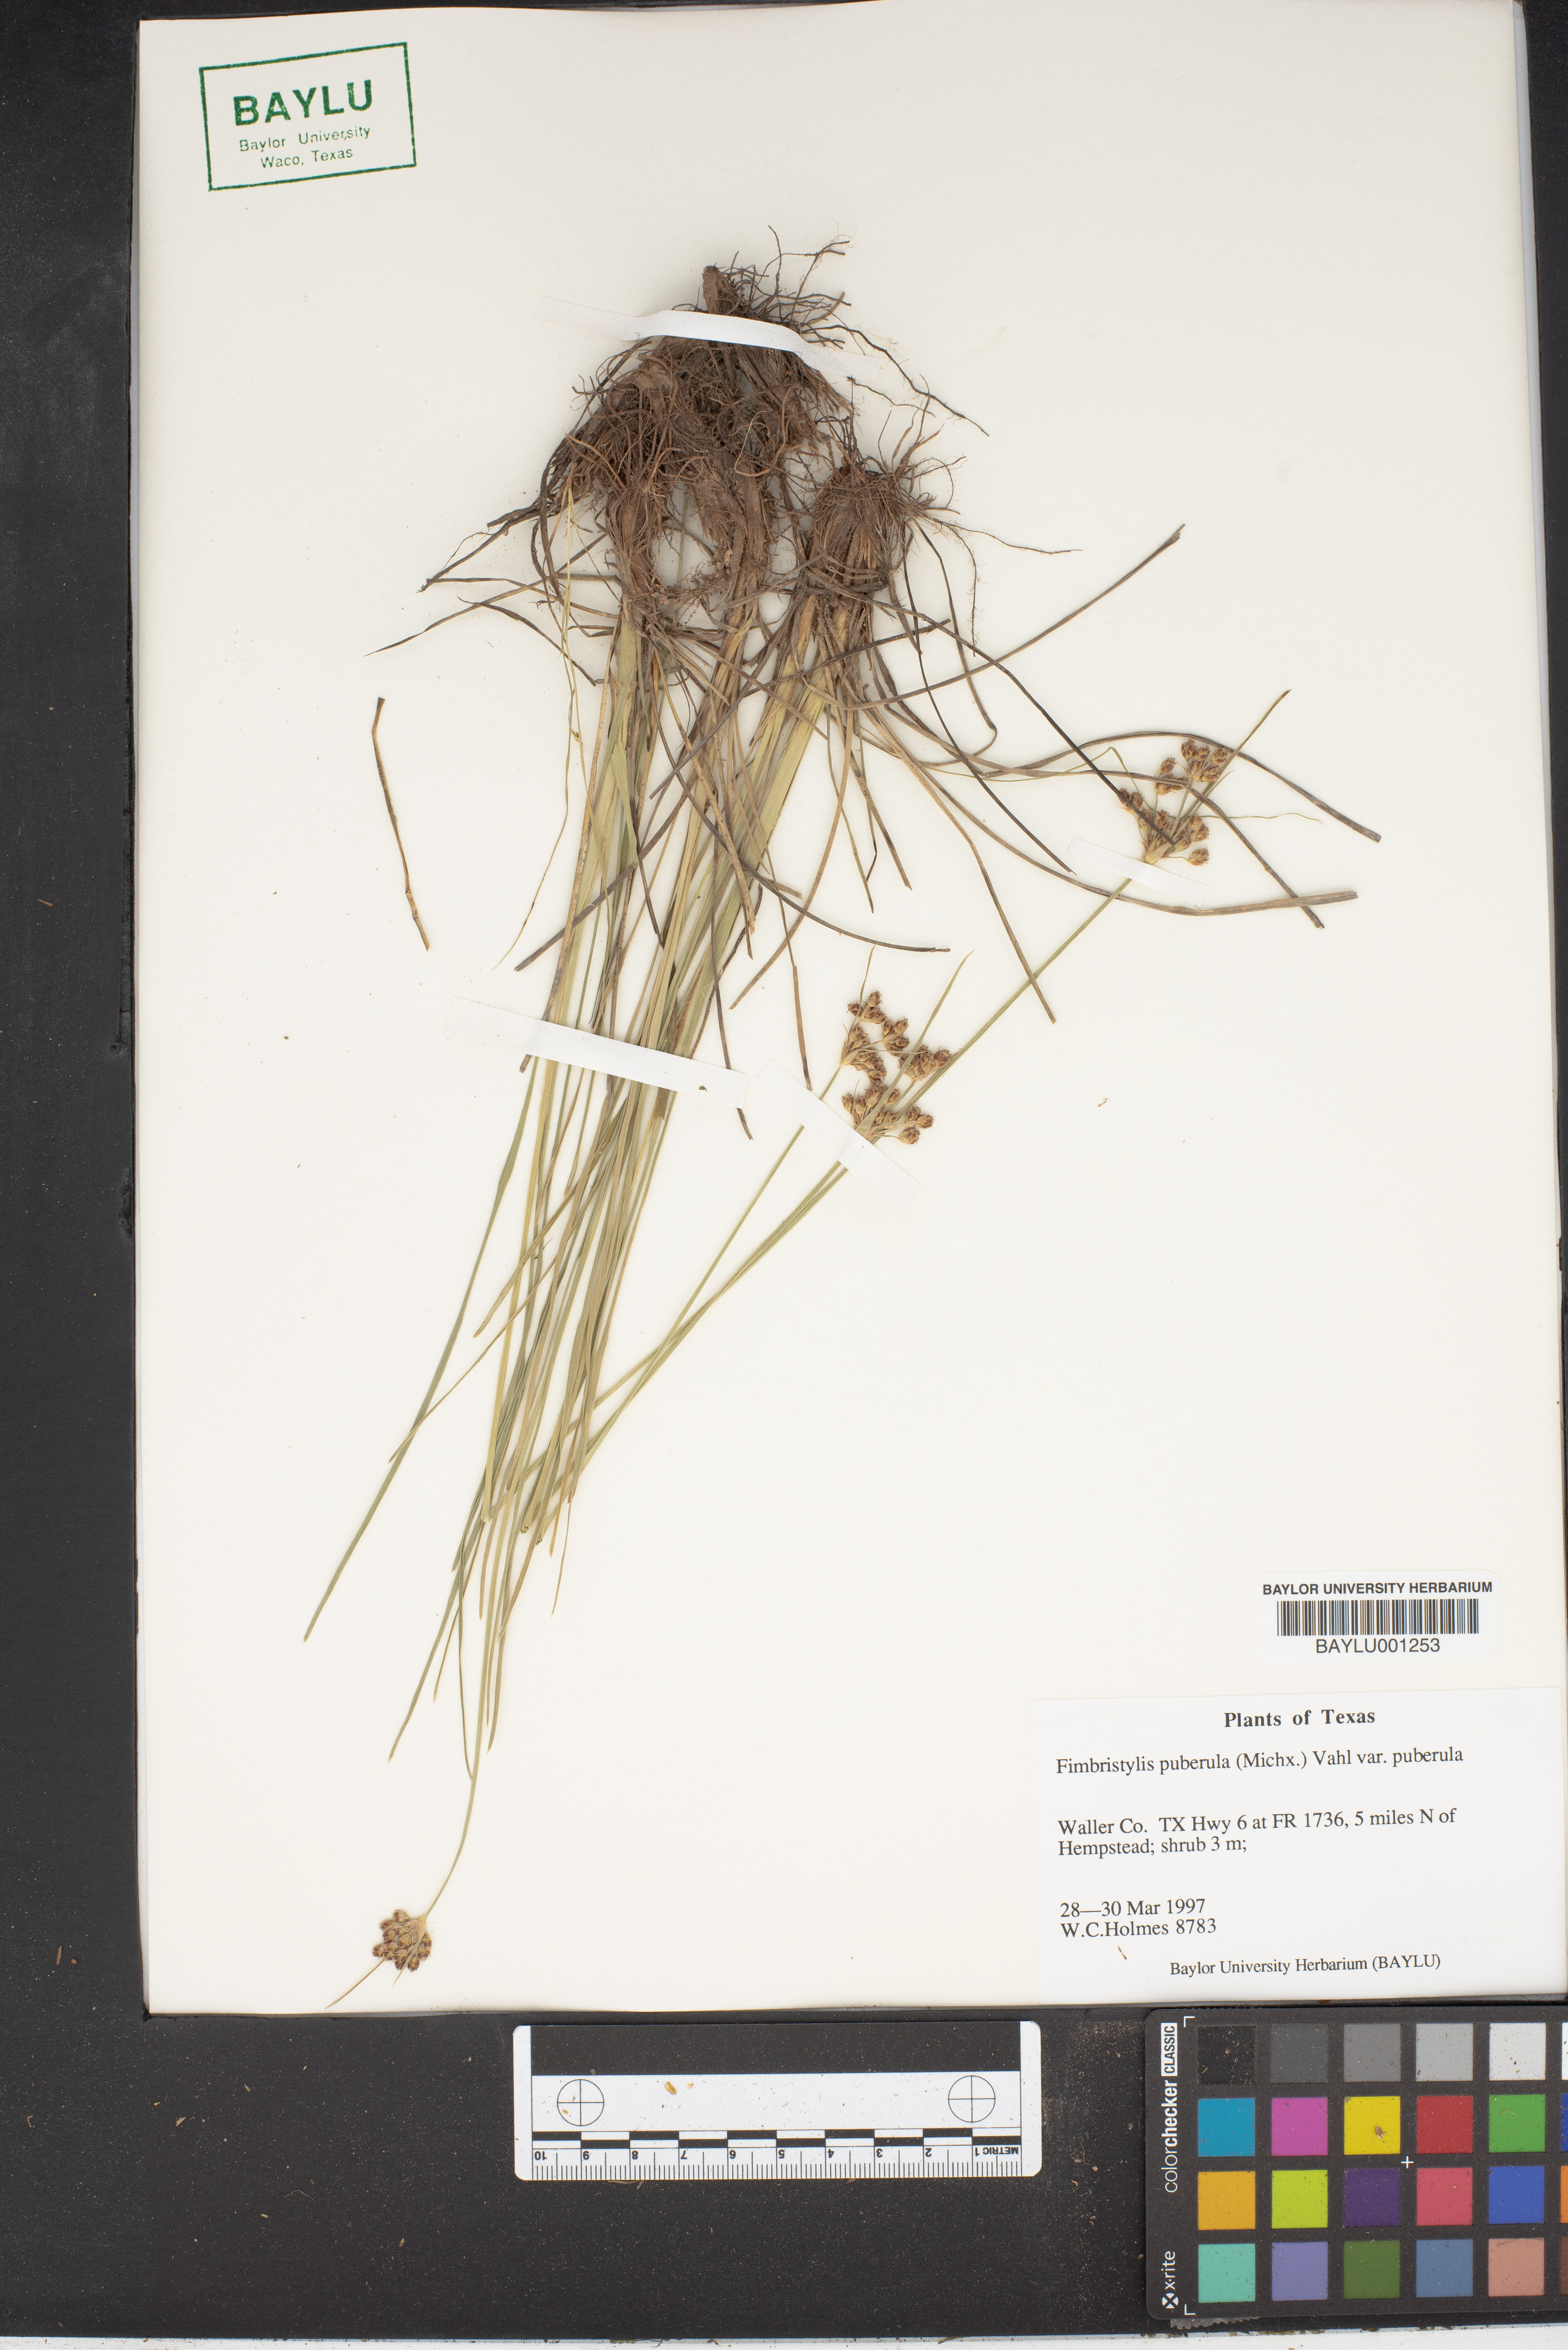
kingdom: Plantae
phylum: Tracheophyta
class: Liliopsida
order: Poales
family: Cyperaceae
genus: Fimbristylis
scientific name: Fimbristylis puberula
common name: Hairy fimbristylis
